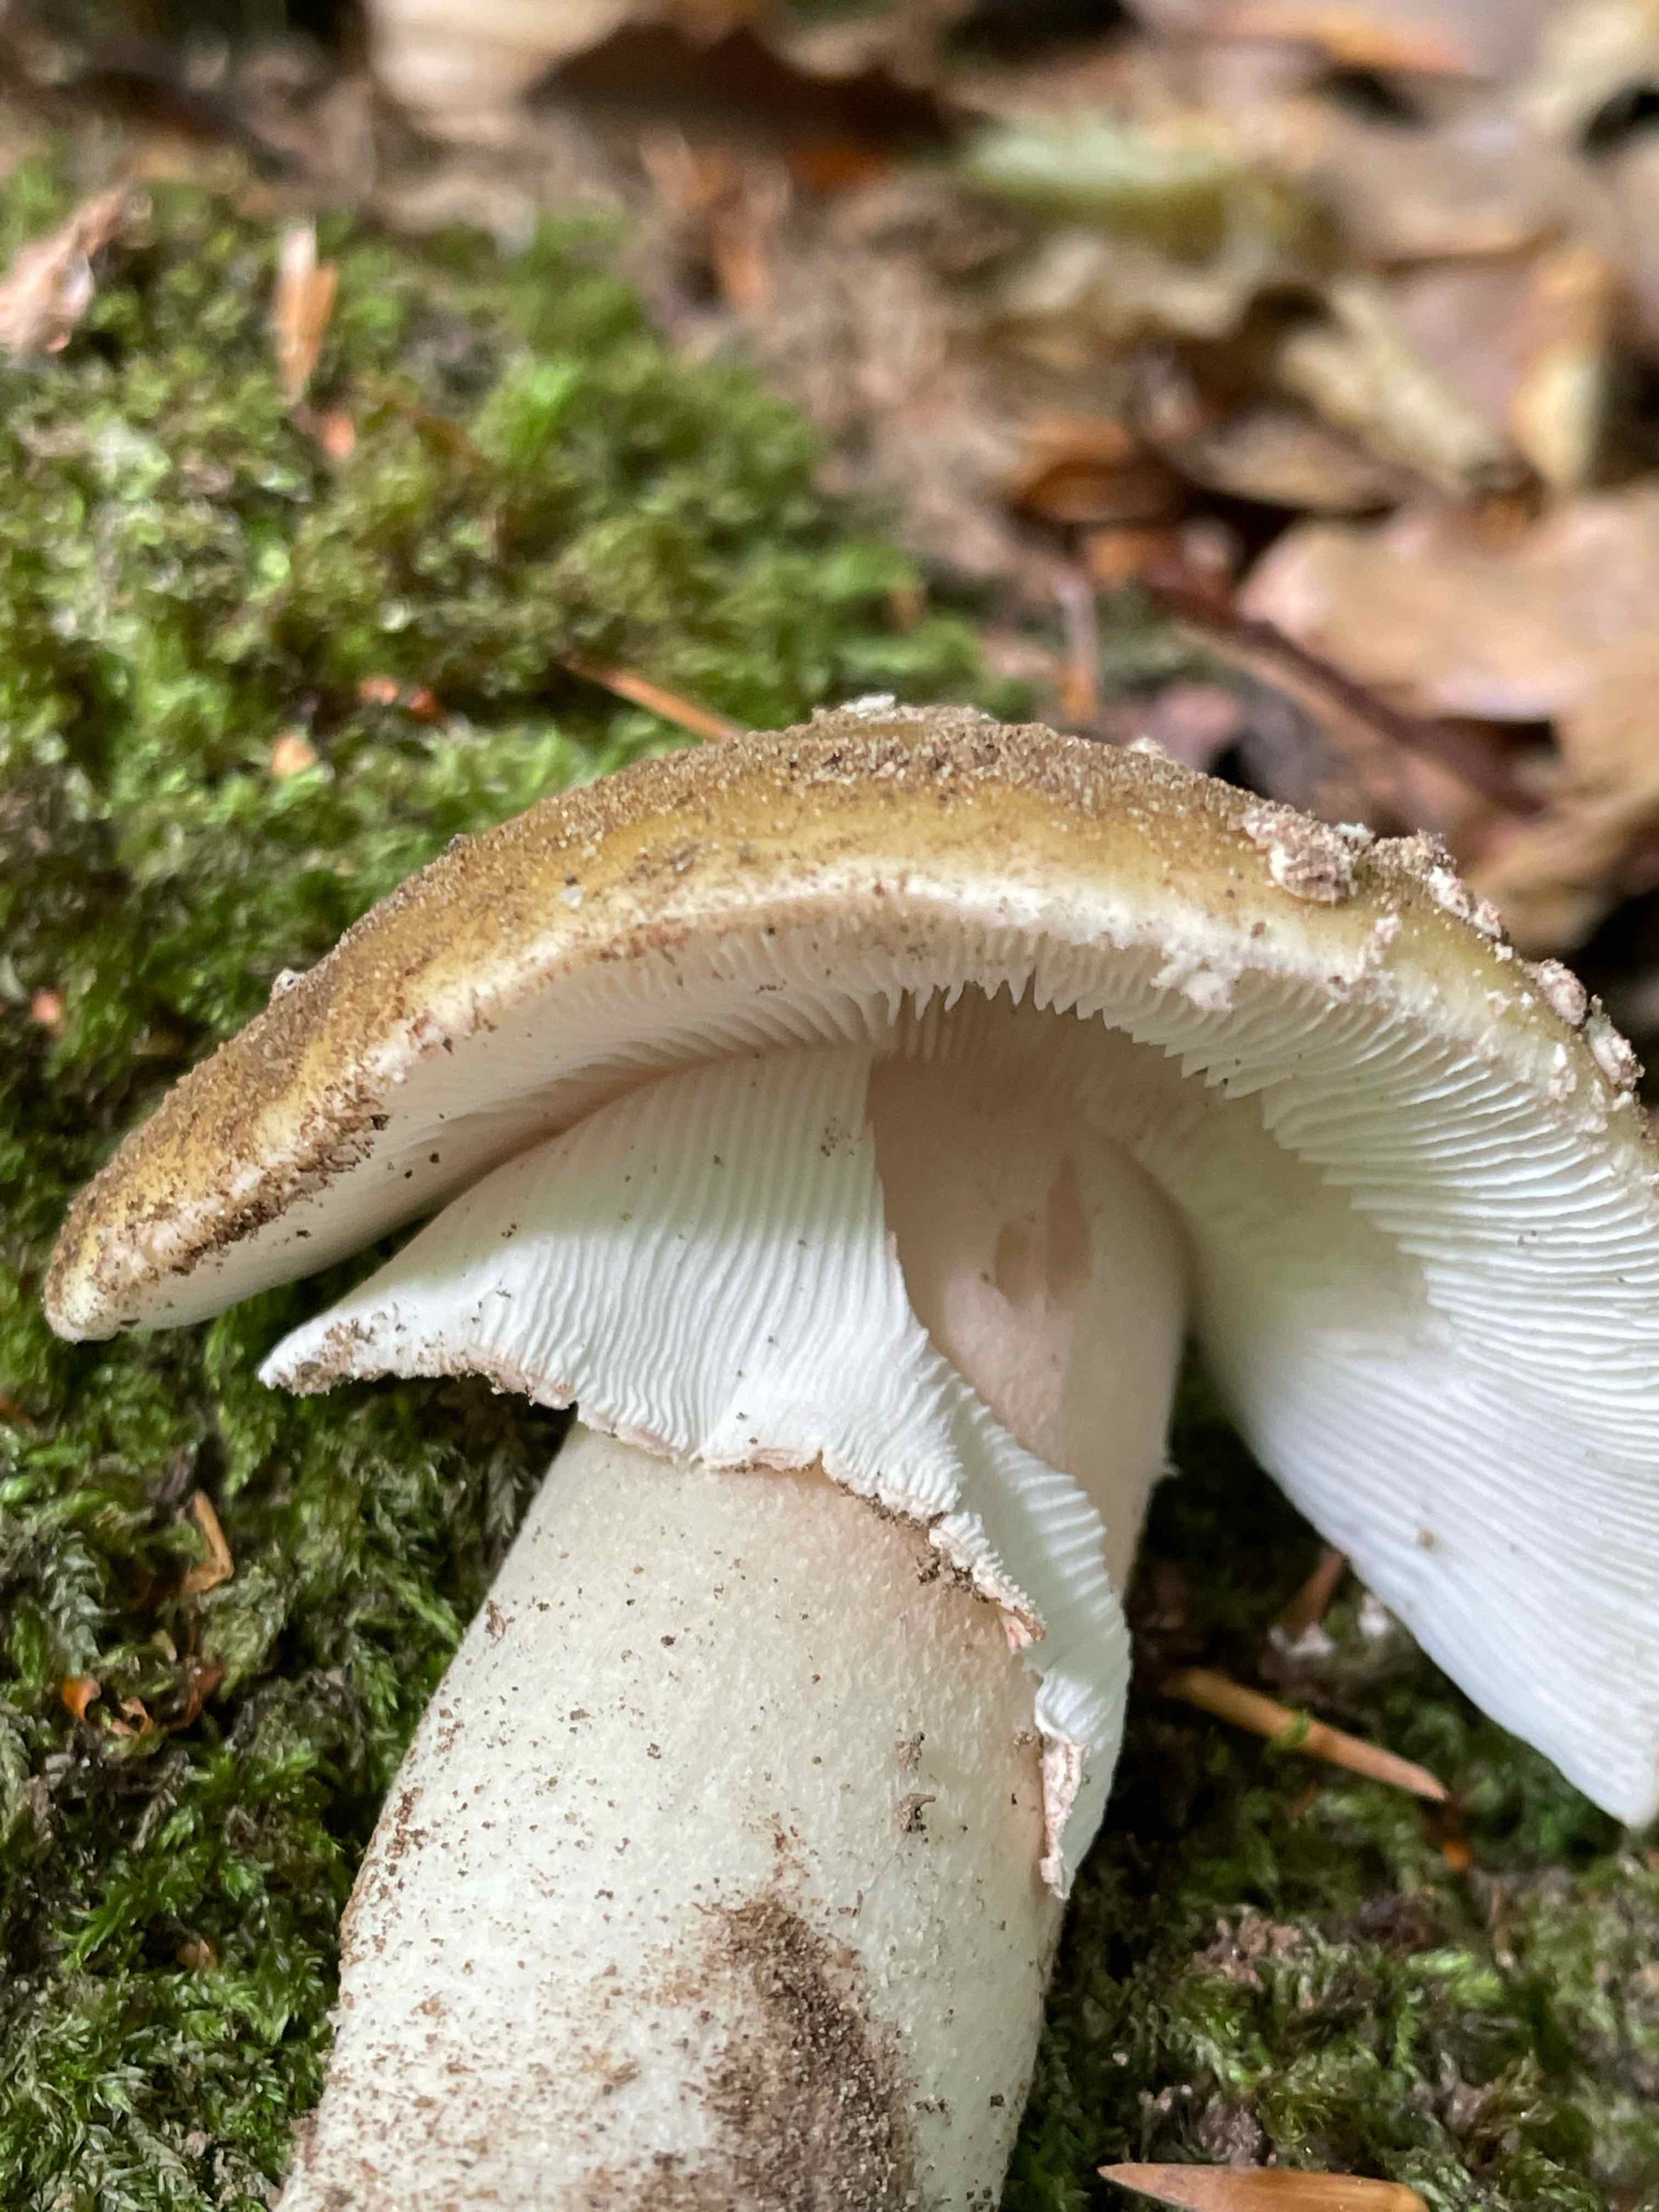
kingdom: Fungi
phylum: Basidiomycota
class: Agaricomycetes
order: Agaricales
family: Amanitaceae
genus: Amanita
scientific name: Amanita rubescens
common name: rødmende fluesvamp
